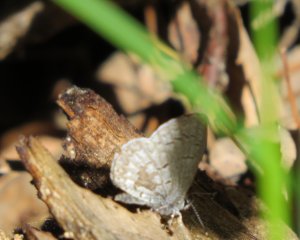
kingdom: Animalia
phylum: Arthropoda
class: Insecta
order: Lepidoptera
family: Lycaenidae
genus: Celastrina
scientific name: Celastrina lucia
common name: Northern Spring Azure
